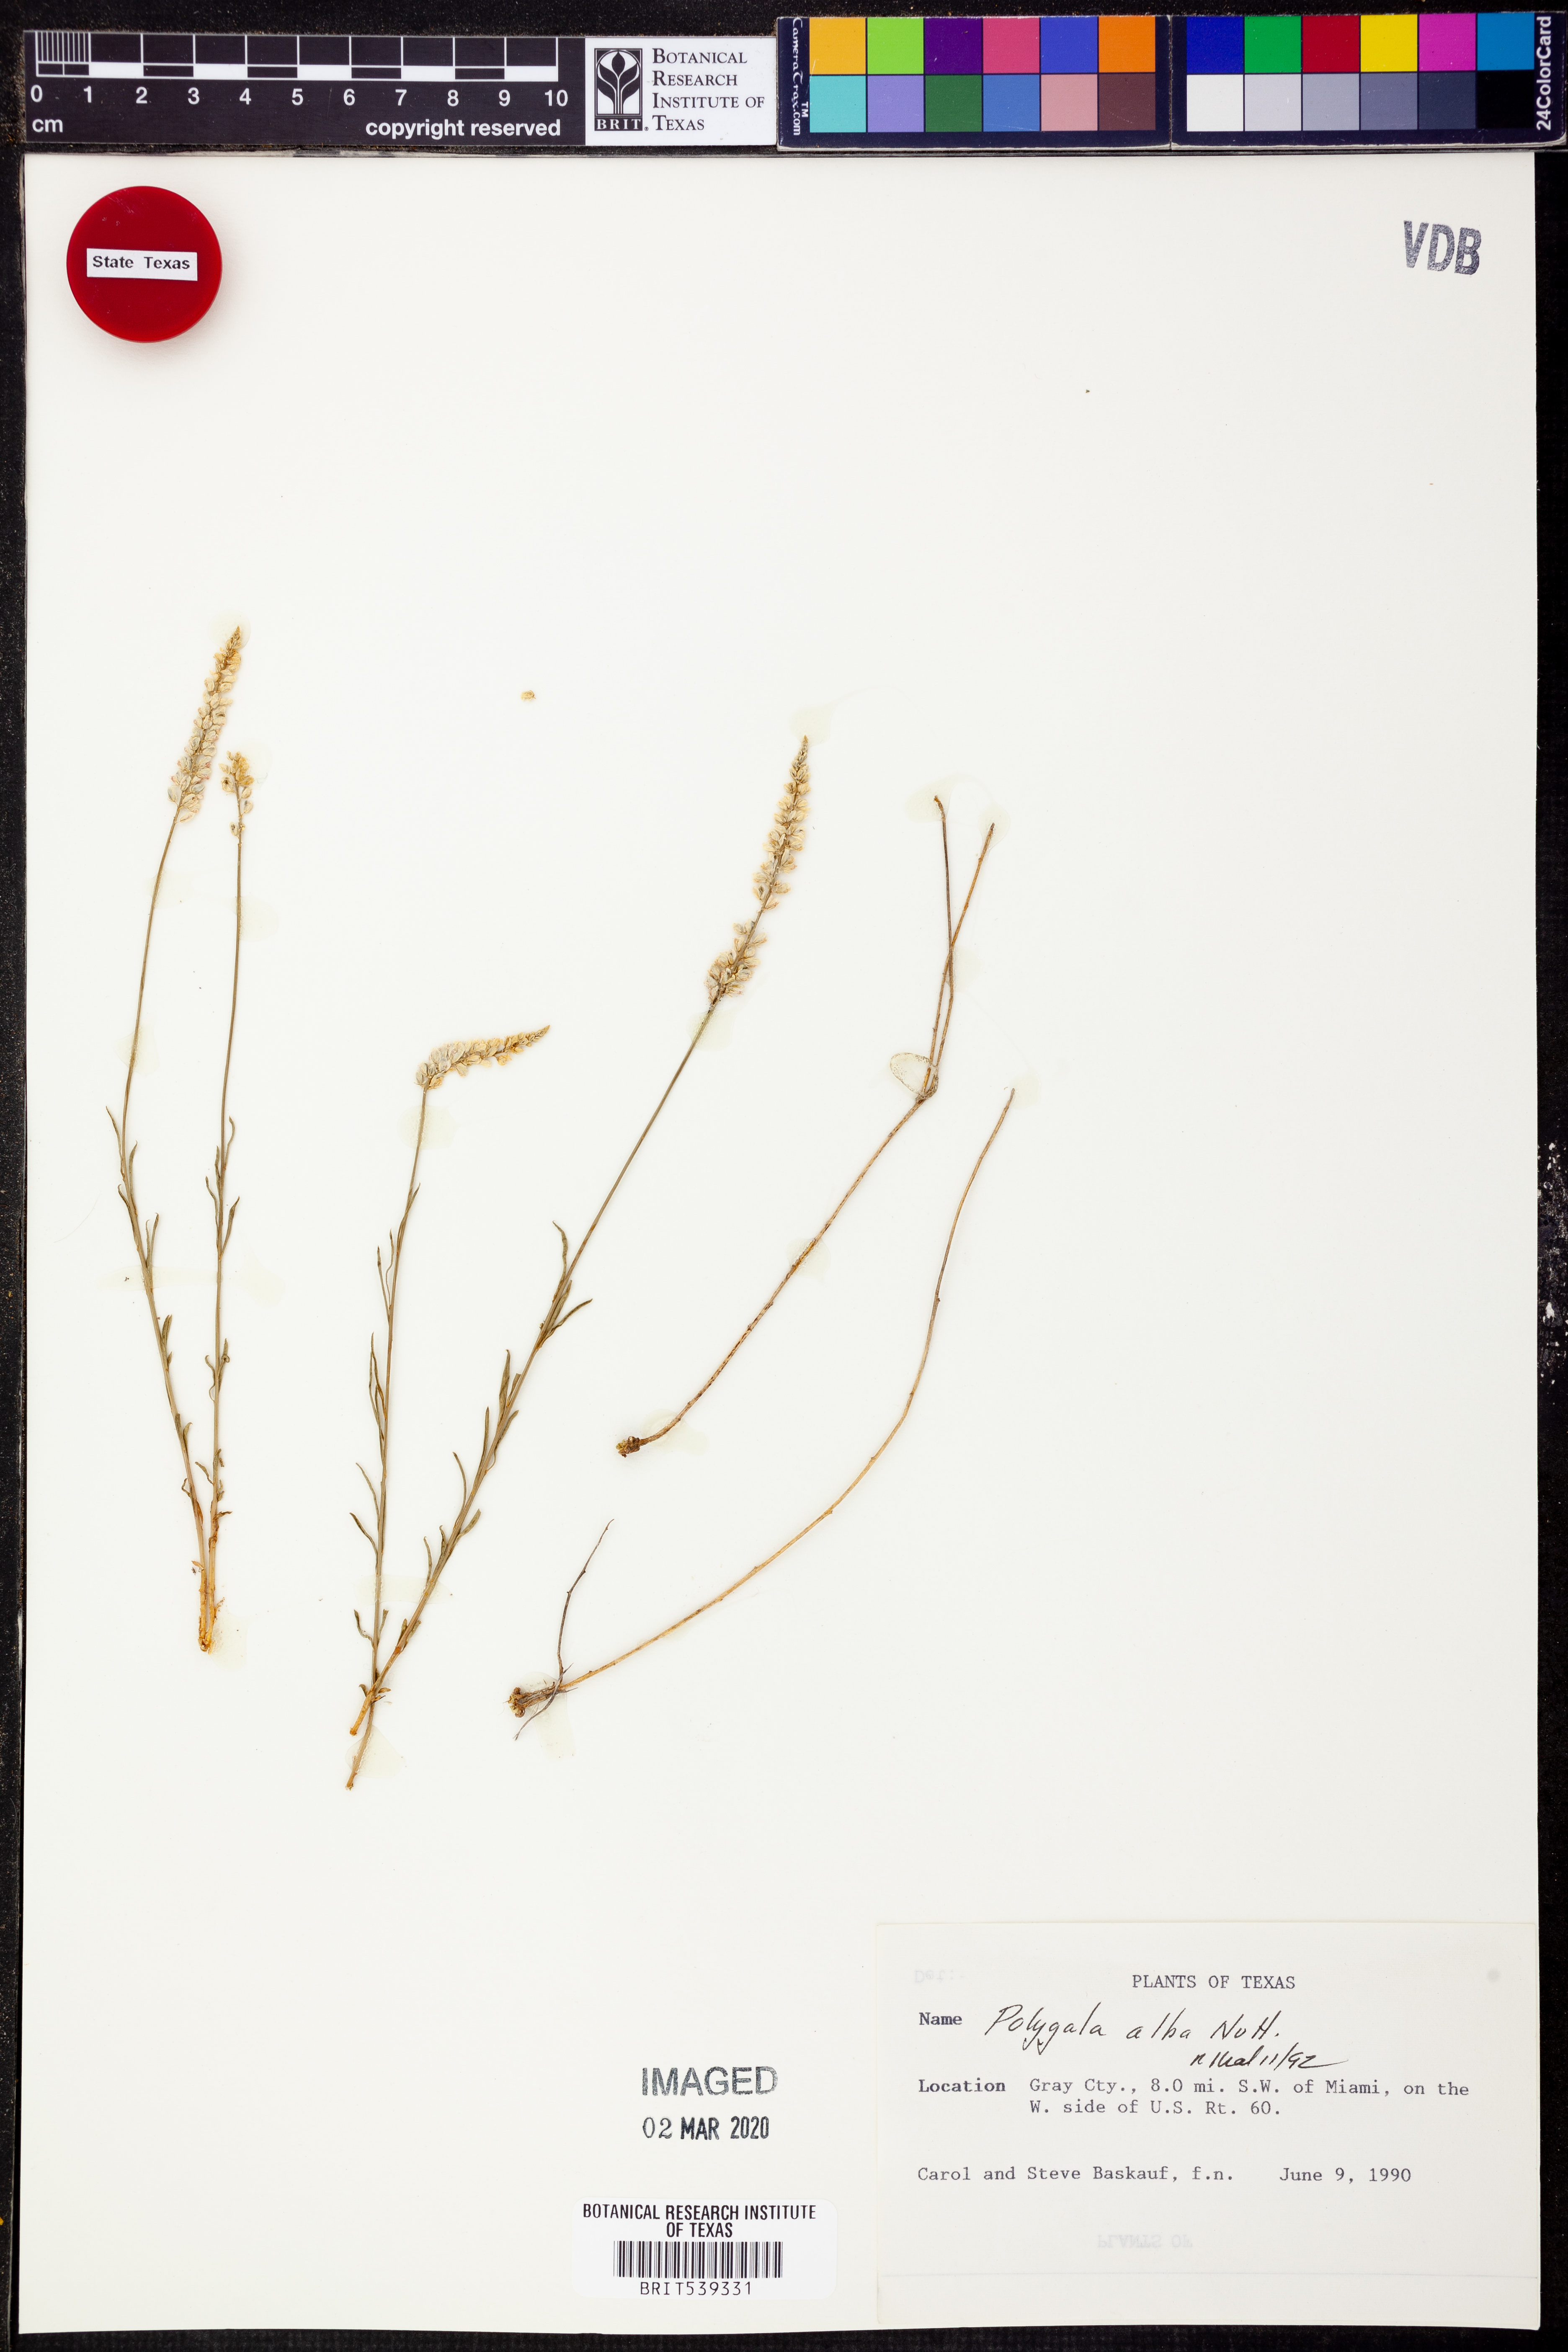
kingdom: Plantae
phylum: Tracheophyta
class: Magnoliopsida
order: Fabales
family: Polygalaceae
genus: Polygala
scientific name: Polygala alba
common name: White milkwort
